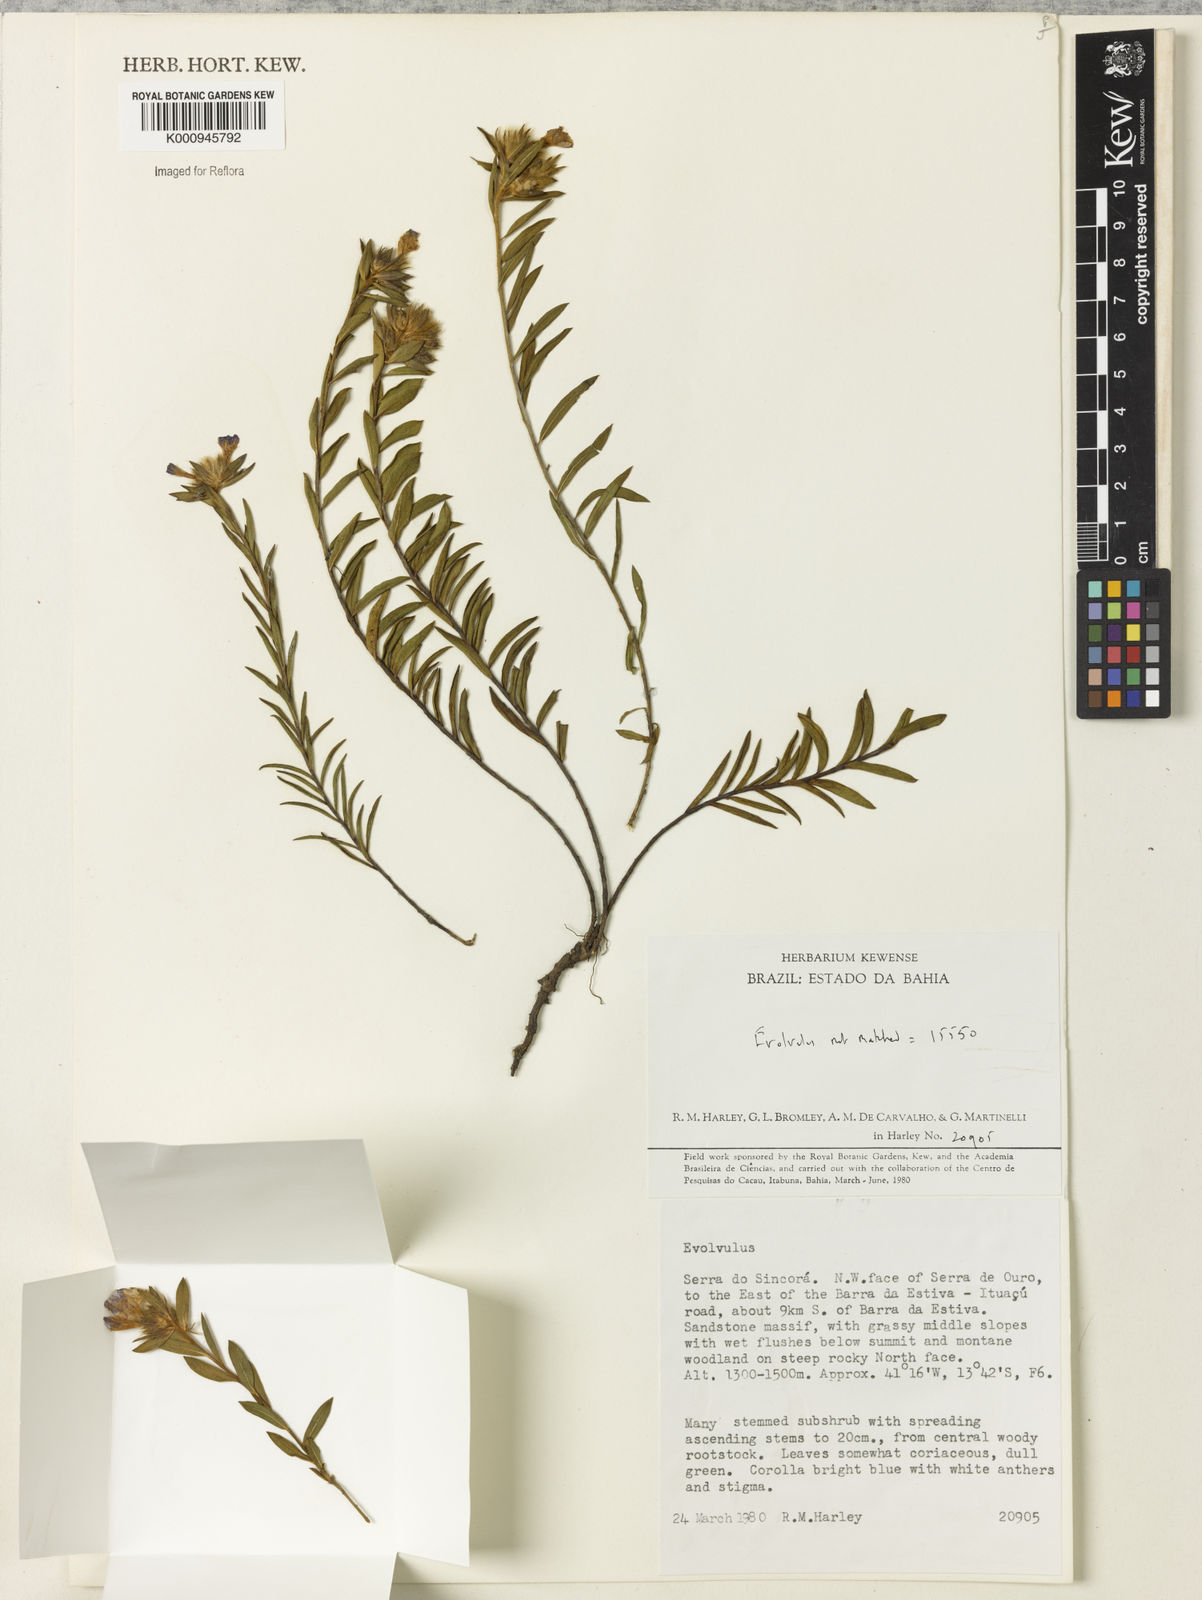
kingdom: Plantae
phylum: Tracheophyta
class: Magnoliopsida
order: Solanales
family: Convolvulaceae
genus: Evolvulus
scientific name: Evolvulus
